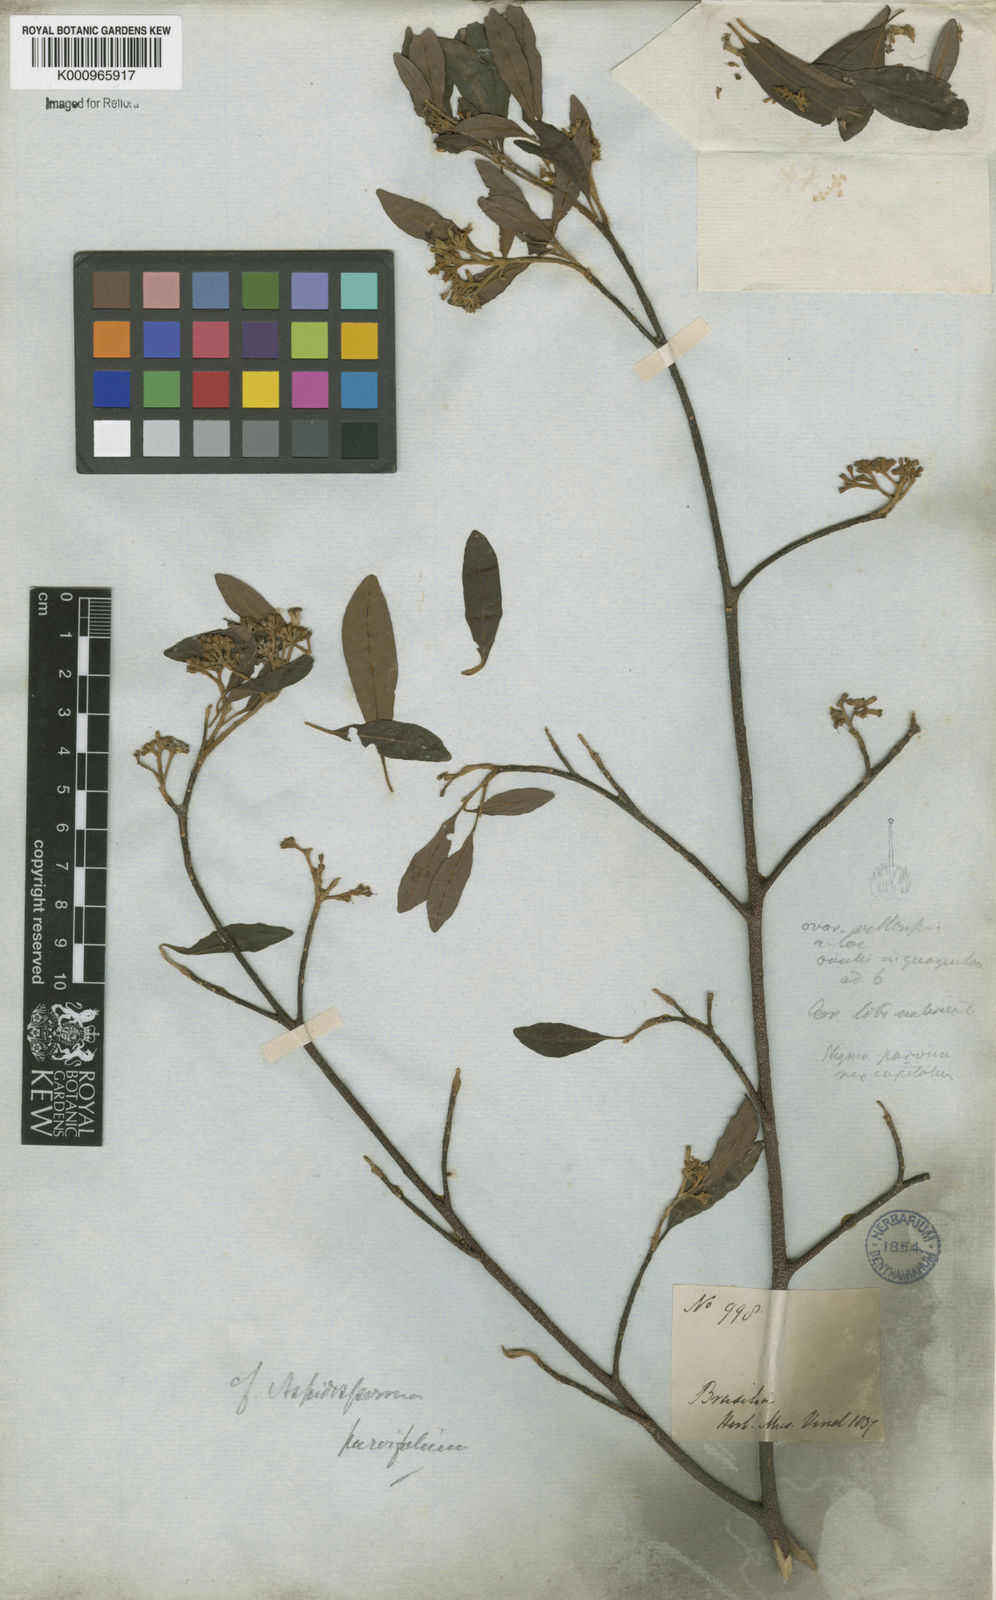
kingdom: Plantae
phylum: Tracheophyta
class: Magnoliopsida
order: Gentianales
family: Apocynaceae
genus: Aspidosperma
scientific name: Aspidosperma
